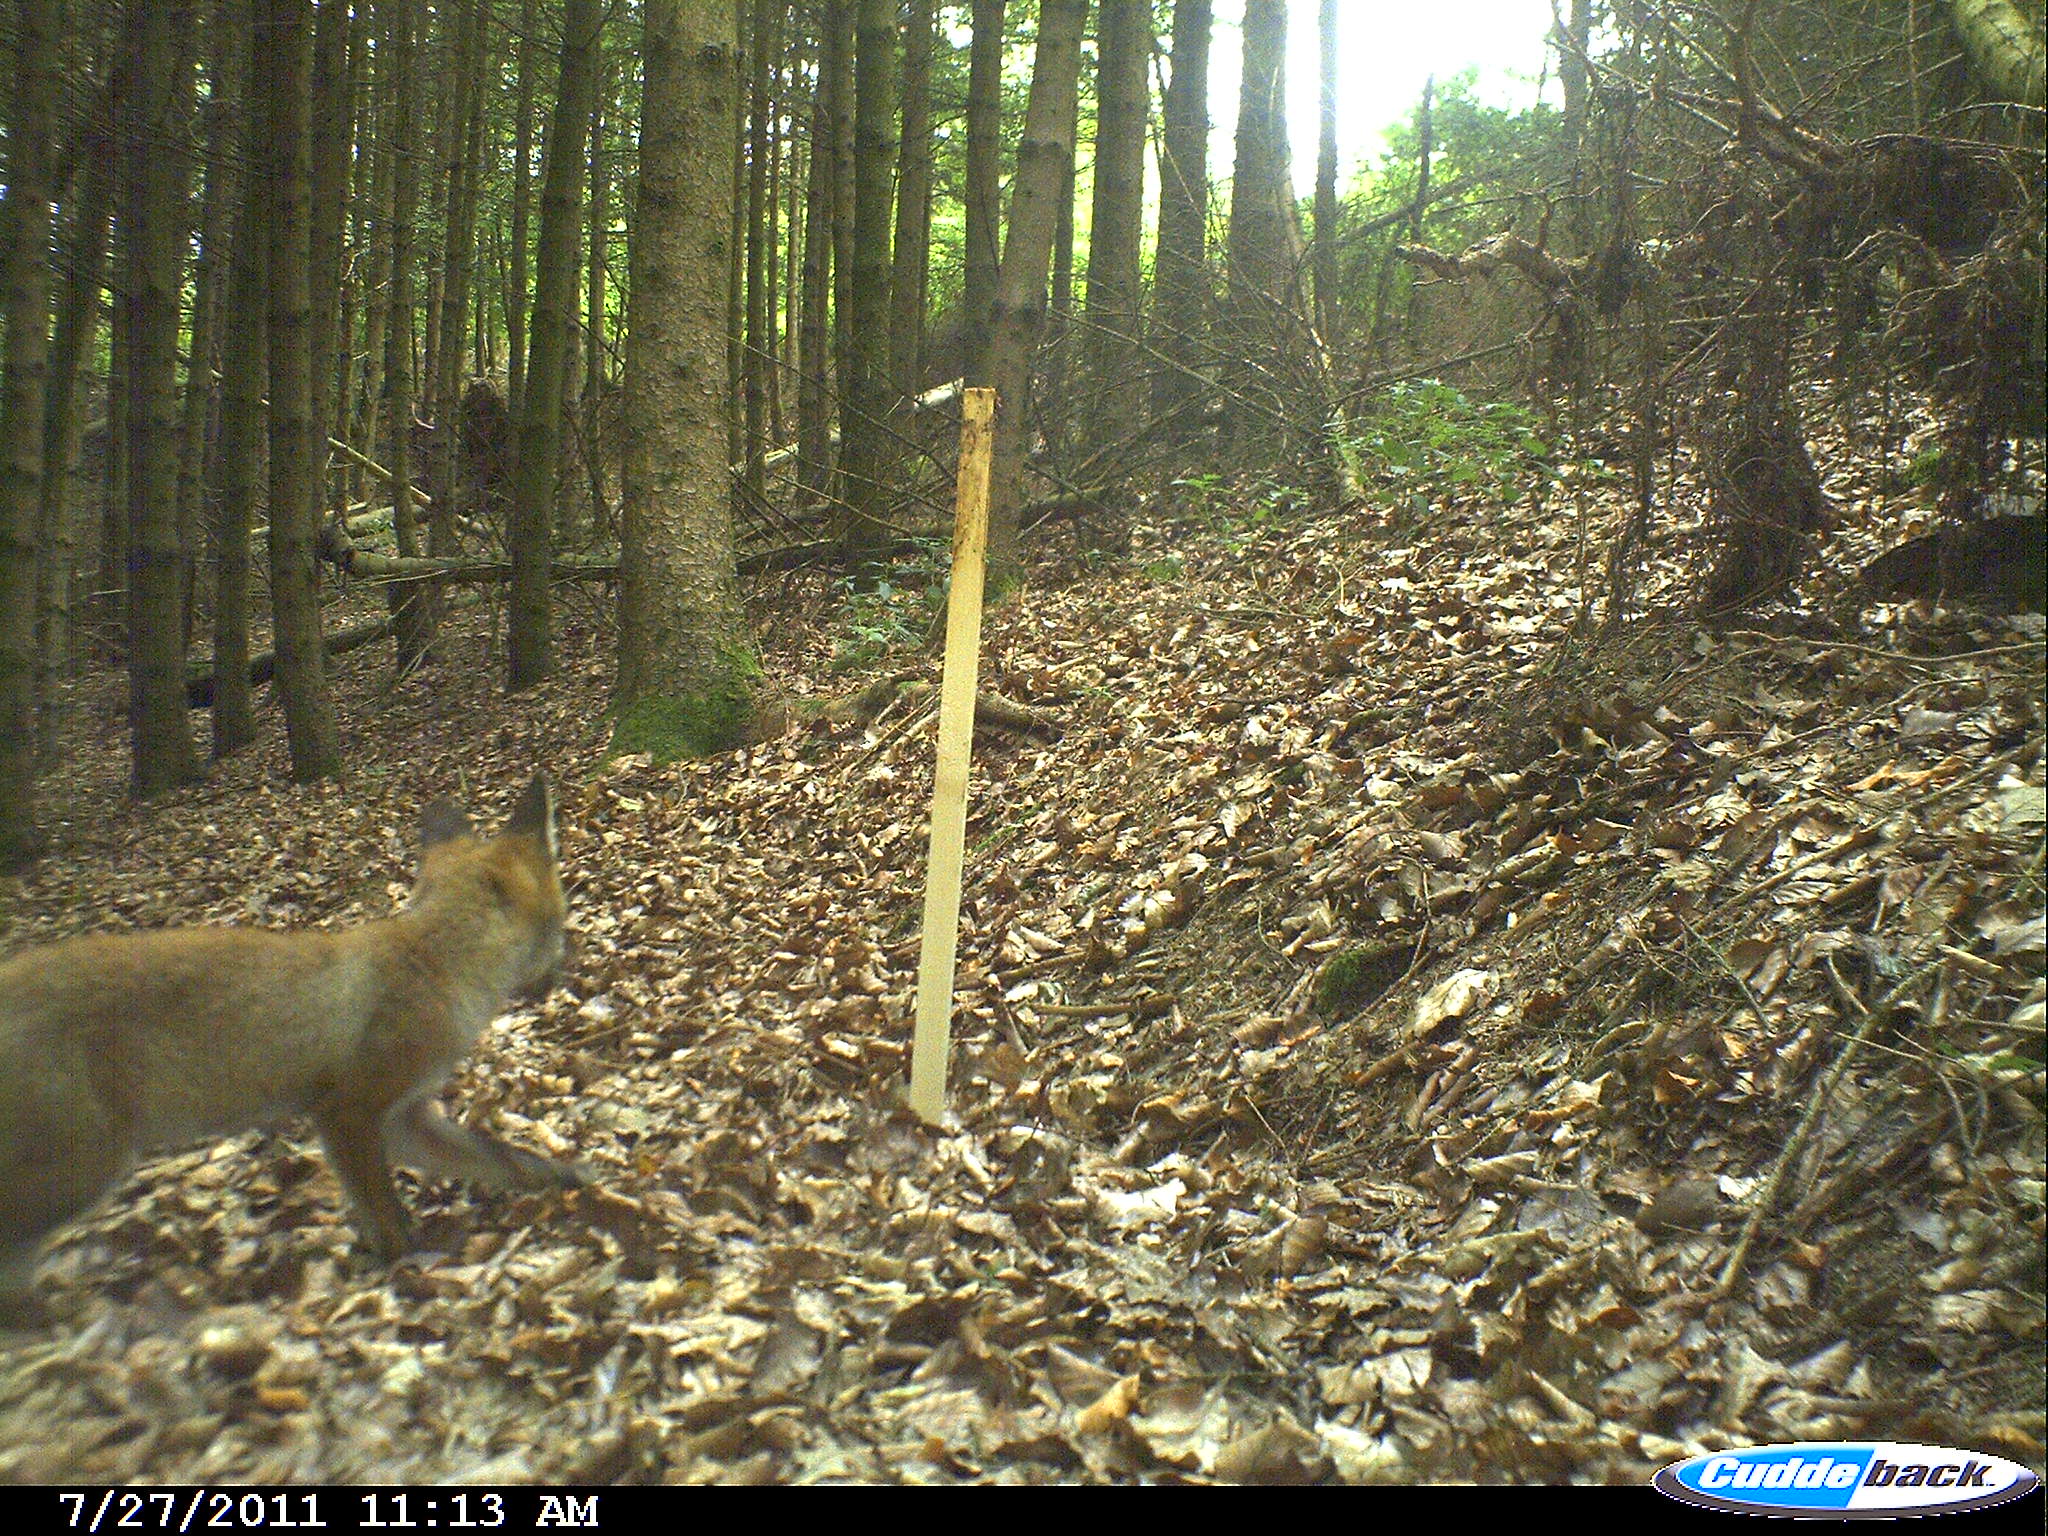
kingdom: Animalia
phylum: Chordata
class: Mammalia
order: Carnivora
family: Canidae
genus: Vulpes
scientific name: Vulpes vulpes
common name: Red fox
